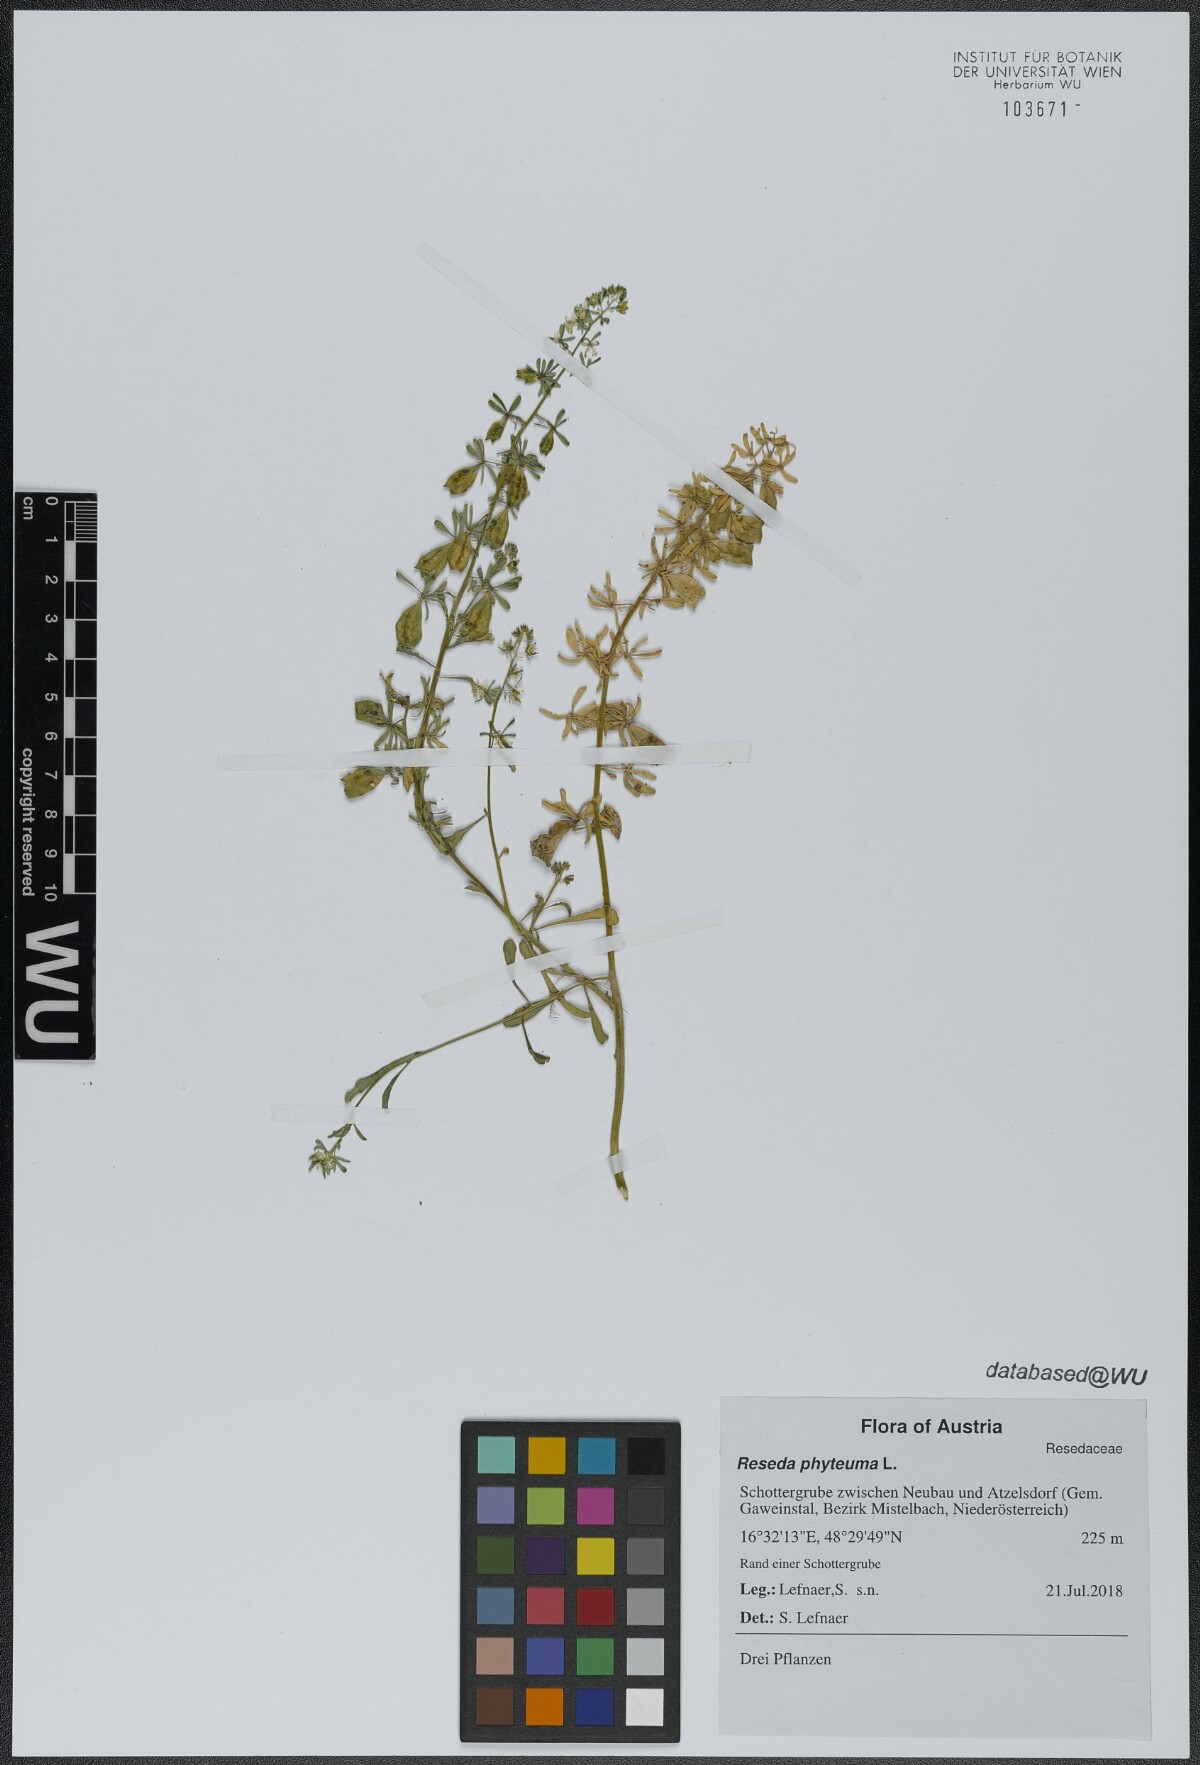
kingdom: Plantae
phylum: Tracheophyta
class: Magnoliopsida
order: Brassicales
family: Resedaceae
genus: Reseda
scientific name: Reseda phyteuma
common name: Corn mignonette
